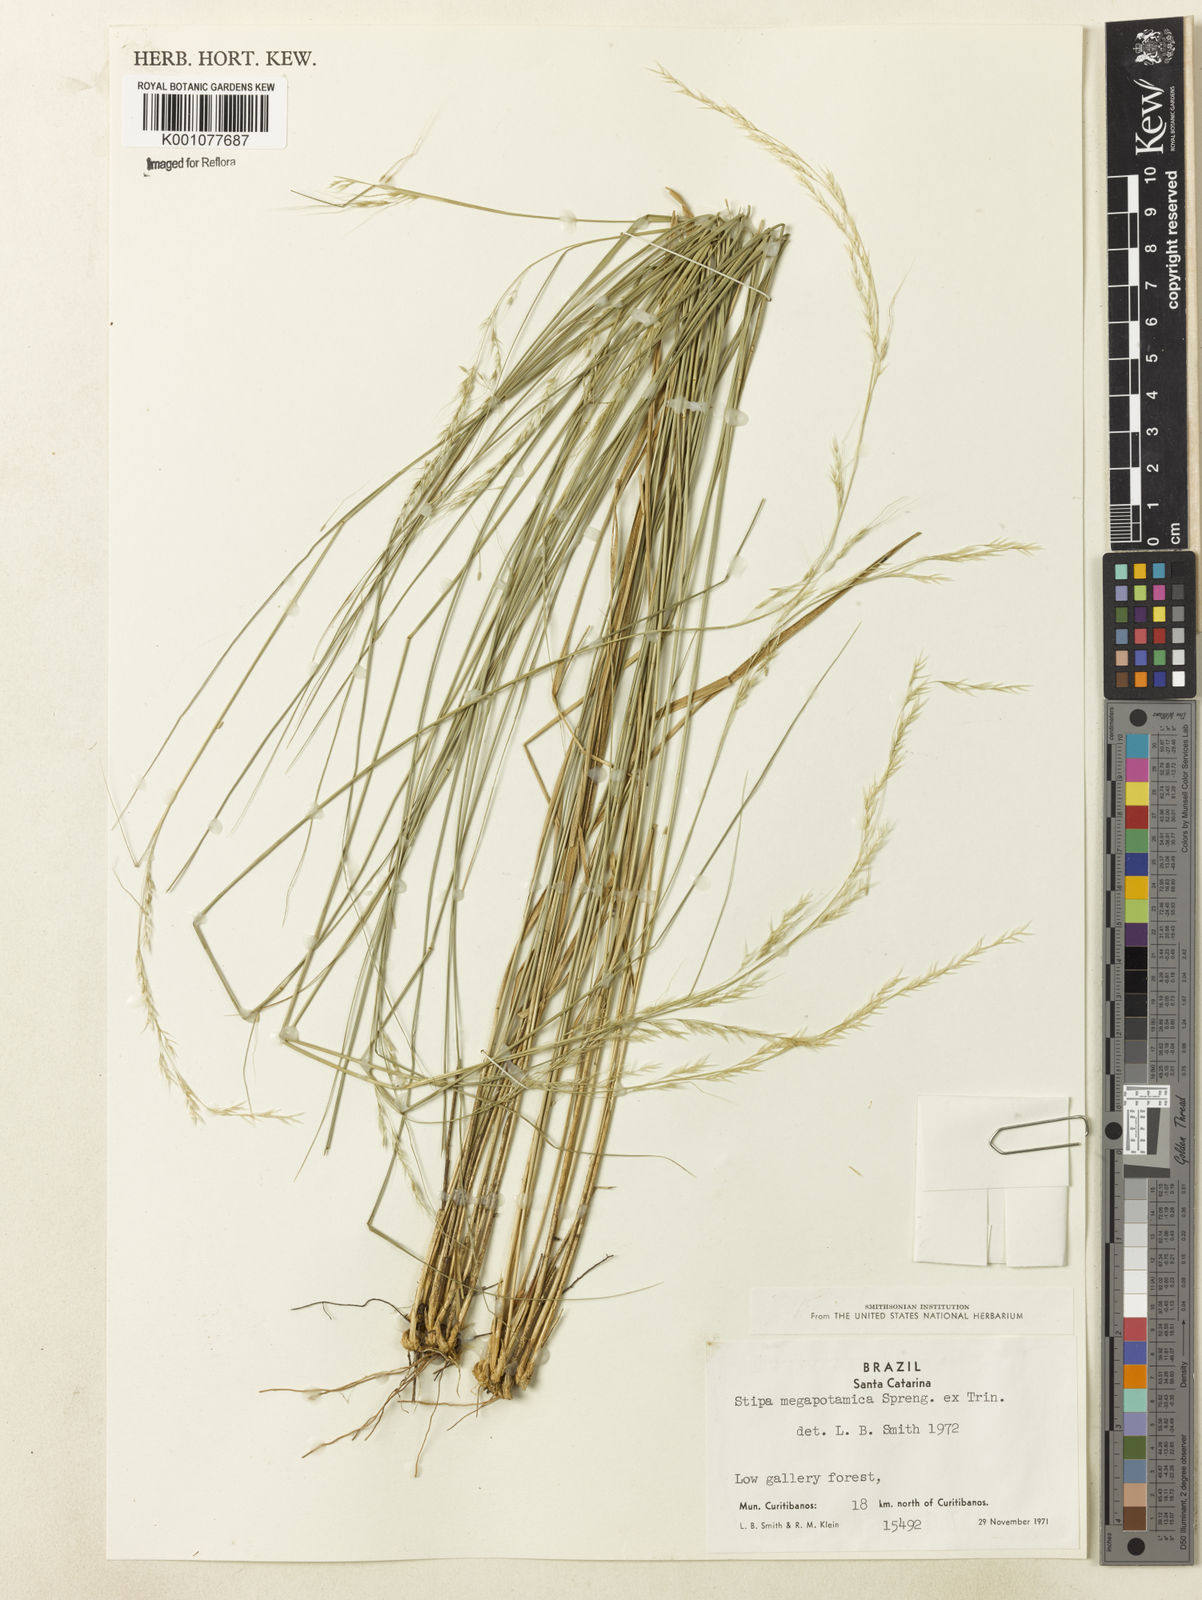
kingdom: Plantae
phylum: Tracheophyta
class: Liliopsida
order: Poales
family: Poaceae
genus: Jarava
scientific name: Jarava filifolia
